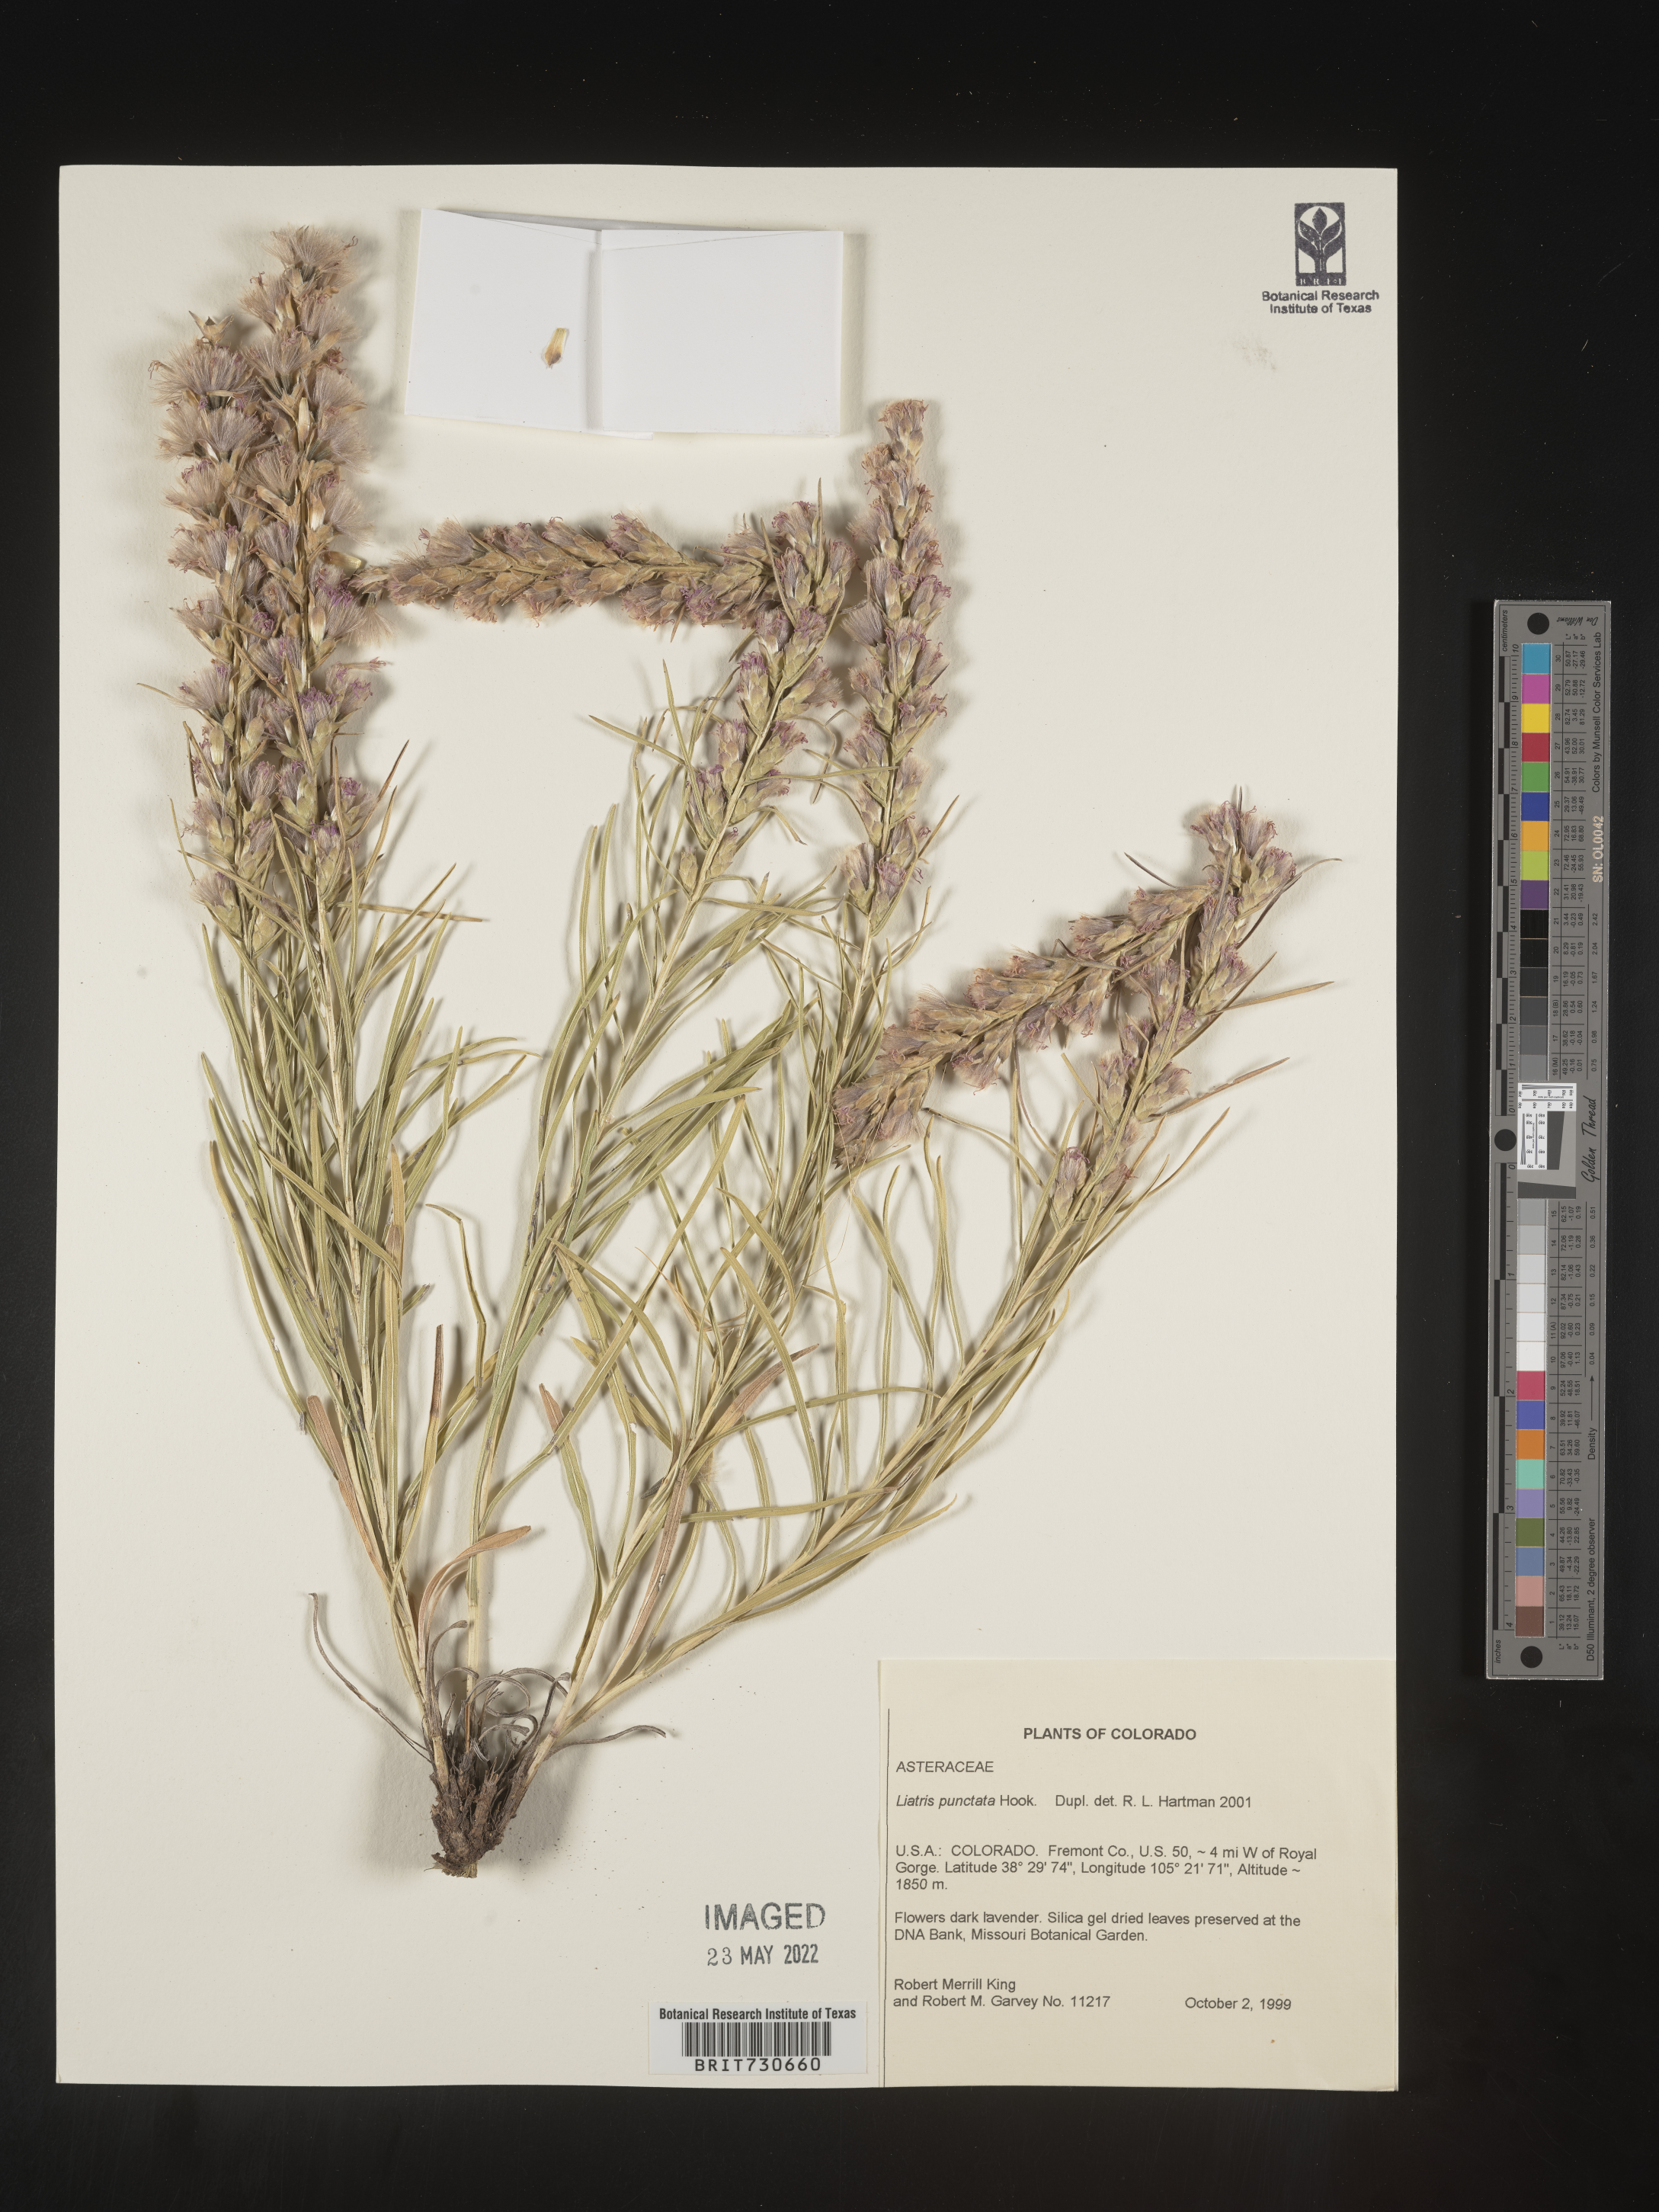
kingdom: Plantae
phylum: Tracheophyta
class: Magnoliopsida
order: Asterales
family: Asteraceae
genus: Liatris
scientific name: Liatris punctata
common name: Dotted gayfeather
